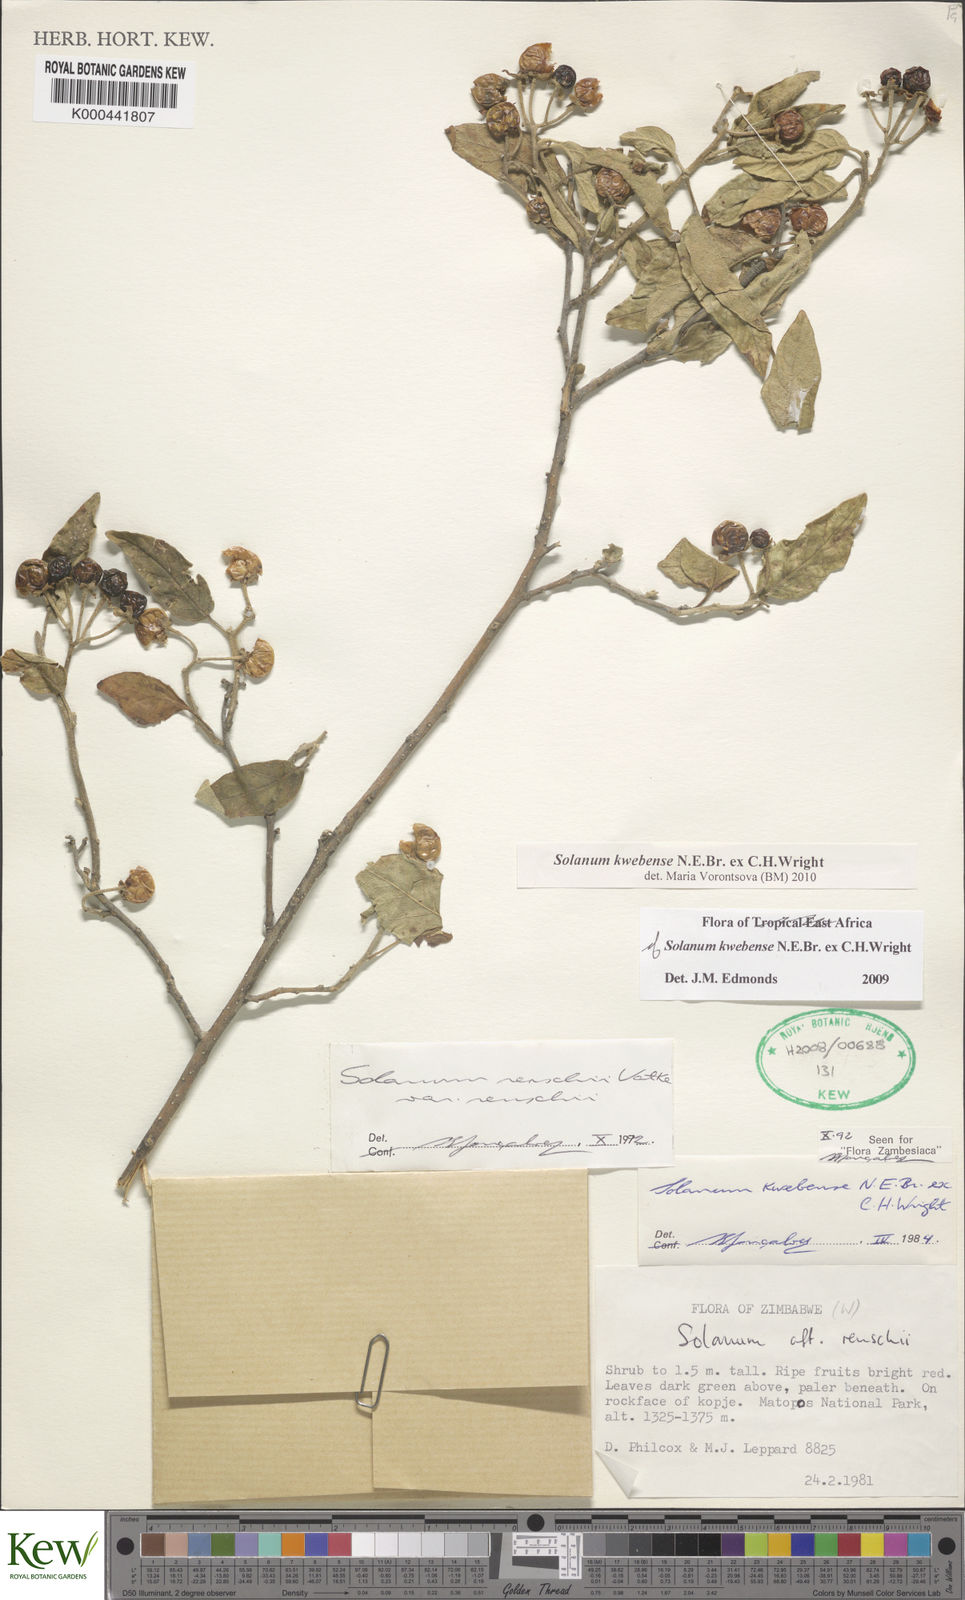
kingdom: Plantae
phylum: Tracheophyta
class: Magnoliopsida
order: Solanales
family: Solanaceae
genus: Solanum
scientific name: Solanum tettense
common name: Mozambique bitter apple
